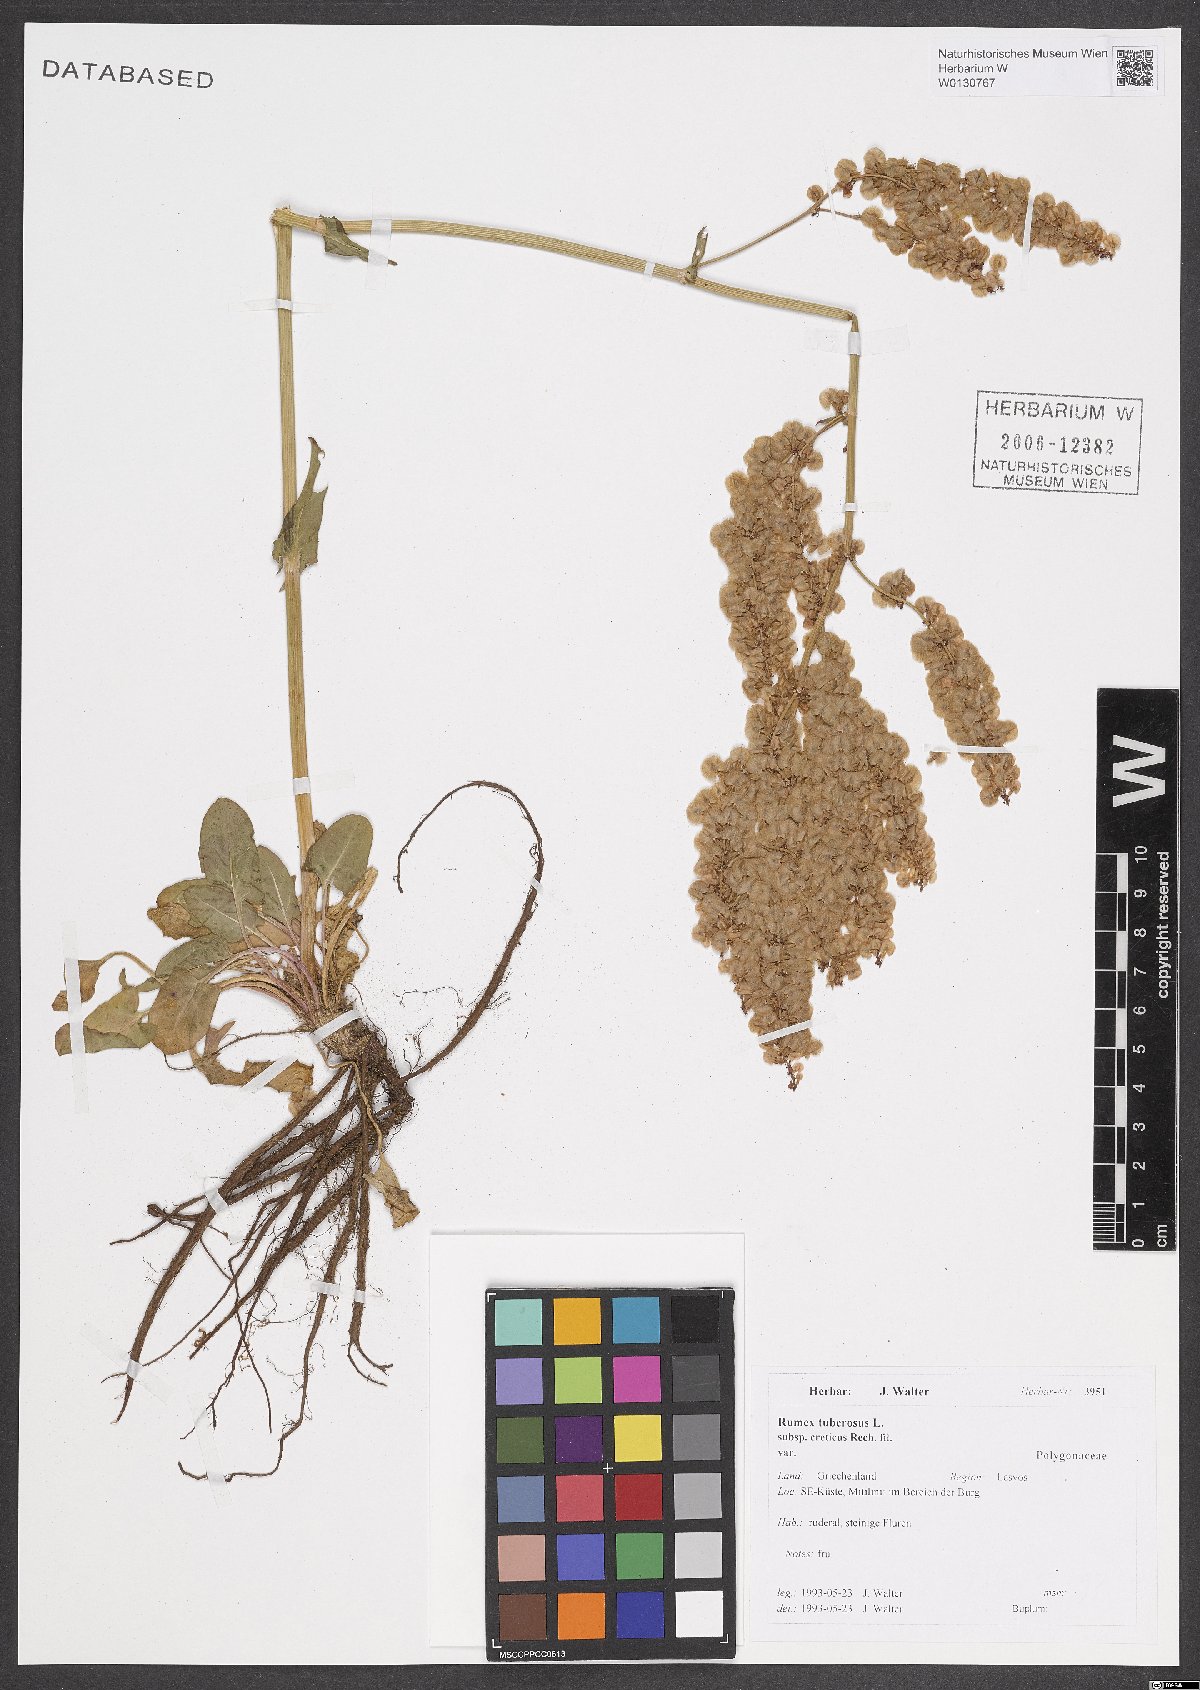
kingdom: Plantae
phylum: Tracheophyta
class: Magnoliopsida
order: Caryophyllales
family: Polygonaceae
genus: Rumex
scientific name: Rumex tuberosus
